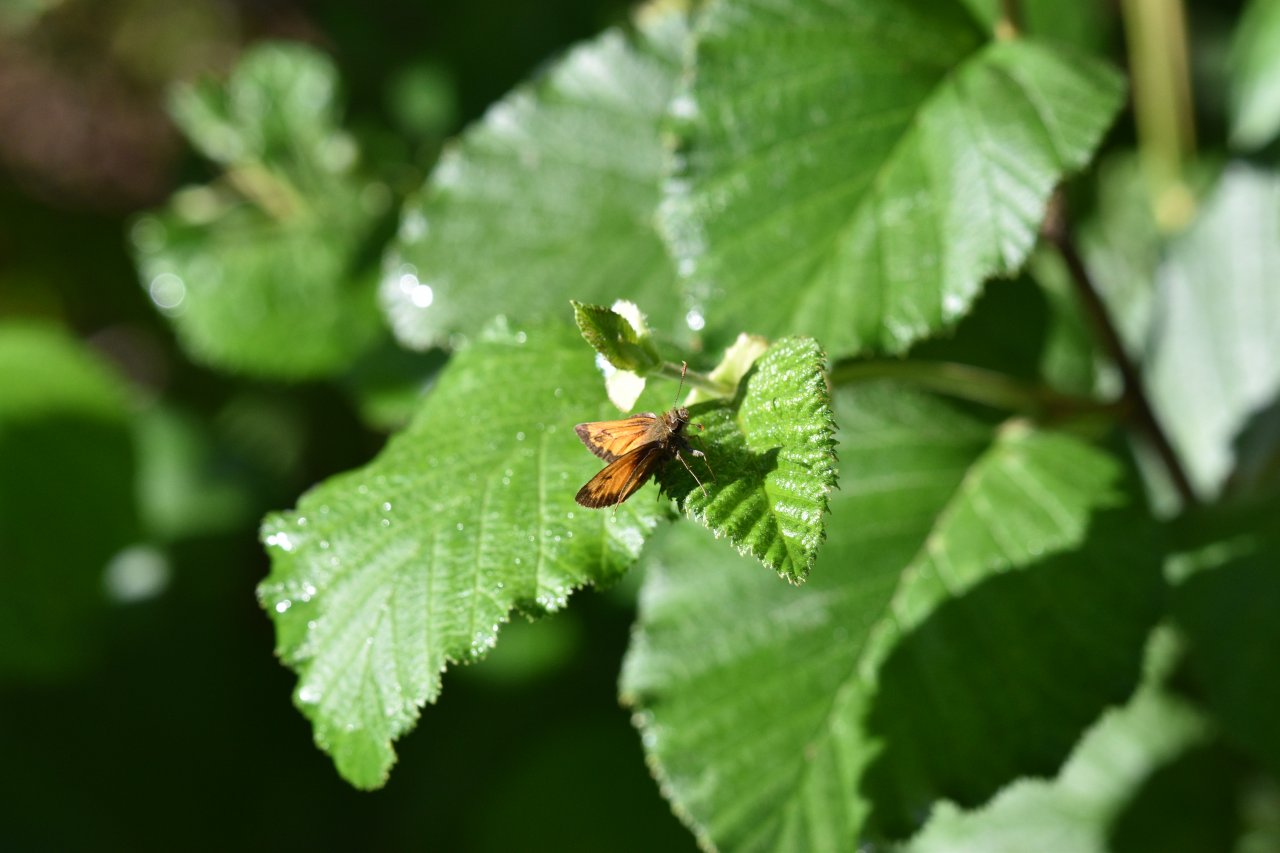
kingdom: Animalia
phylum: Arthropoda
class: Insecta
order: Lepidoptera
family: Hesperiidae
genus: Lon
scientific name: Lon hobomok
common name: Hobomok Skipper
